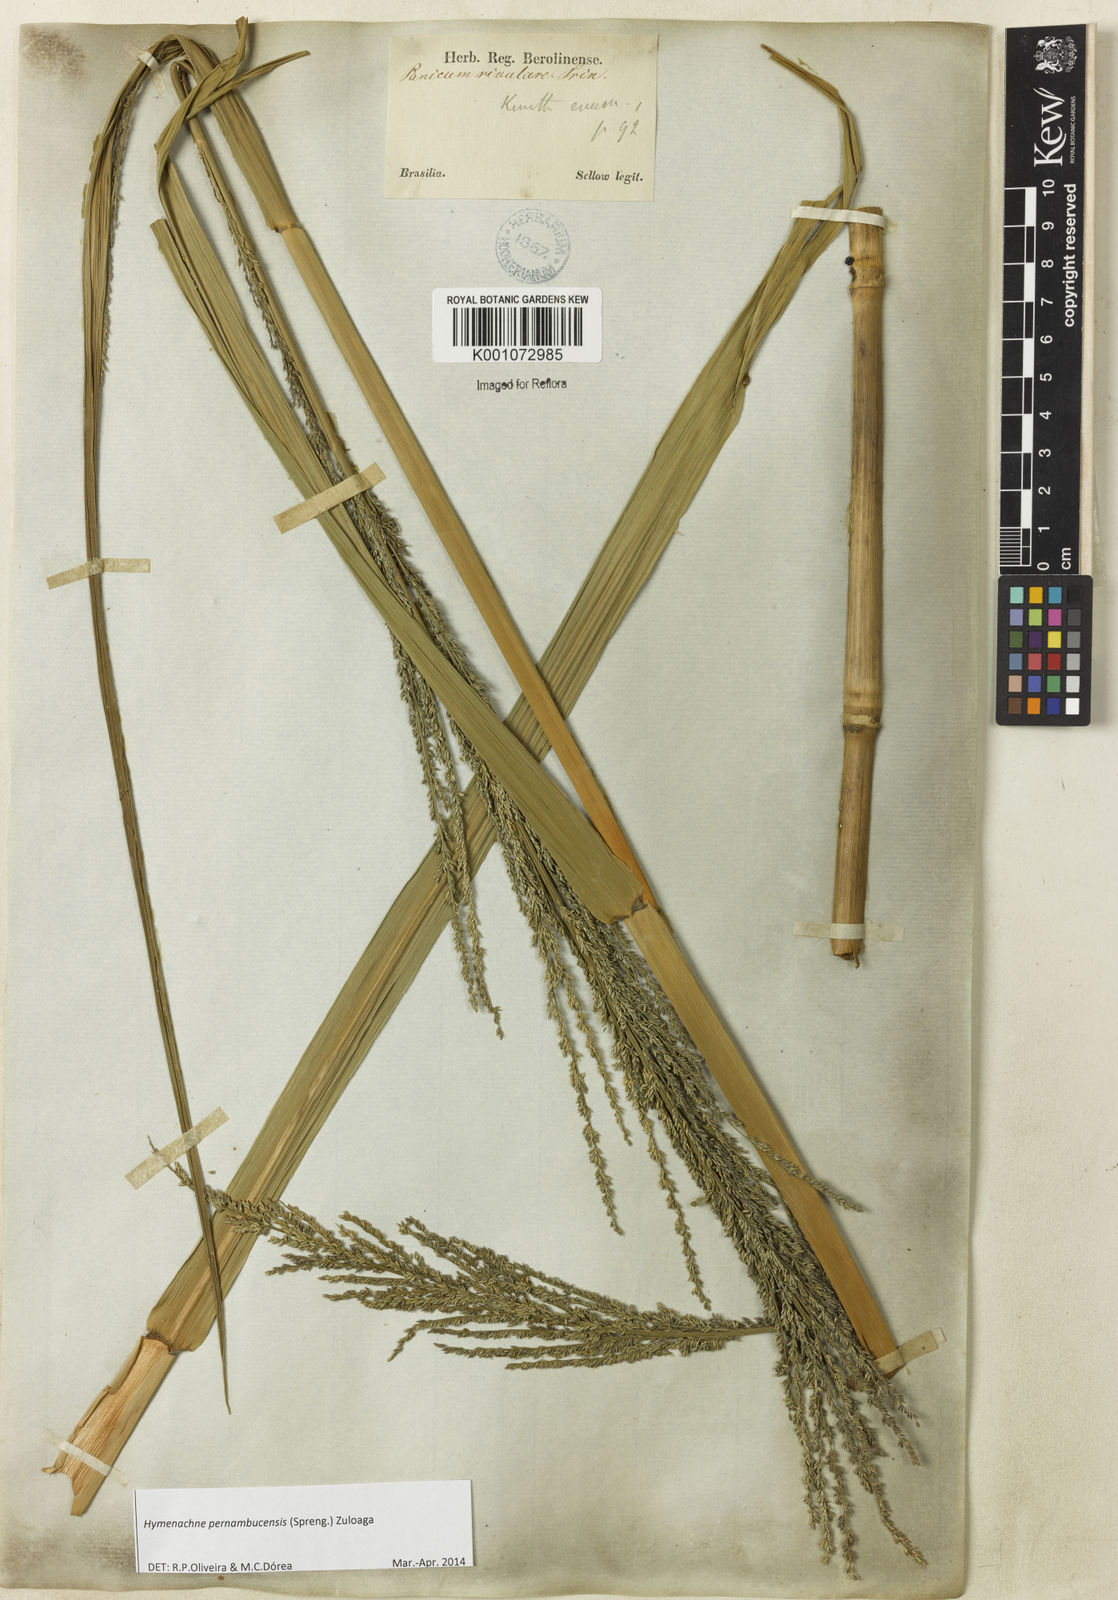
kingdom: Plantae
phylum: Tracheophyta
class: Liliopsida
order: Poales
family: Poaceae
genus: Hymenachne
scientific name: Hymenachne pernambucensis
